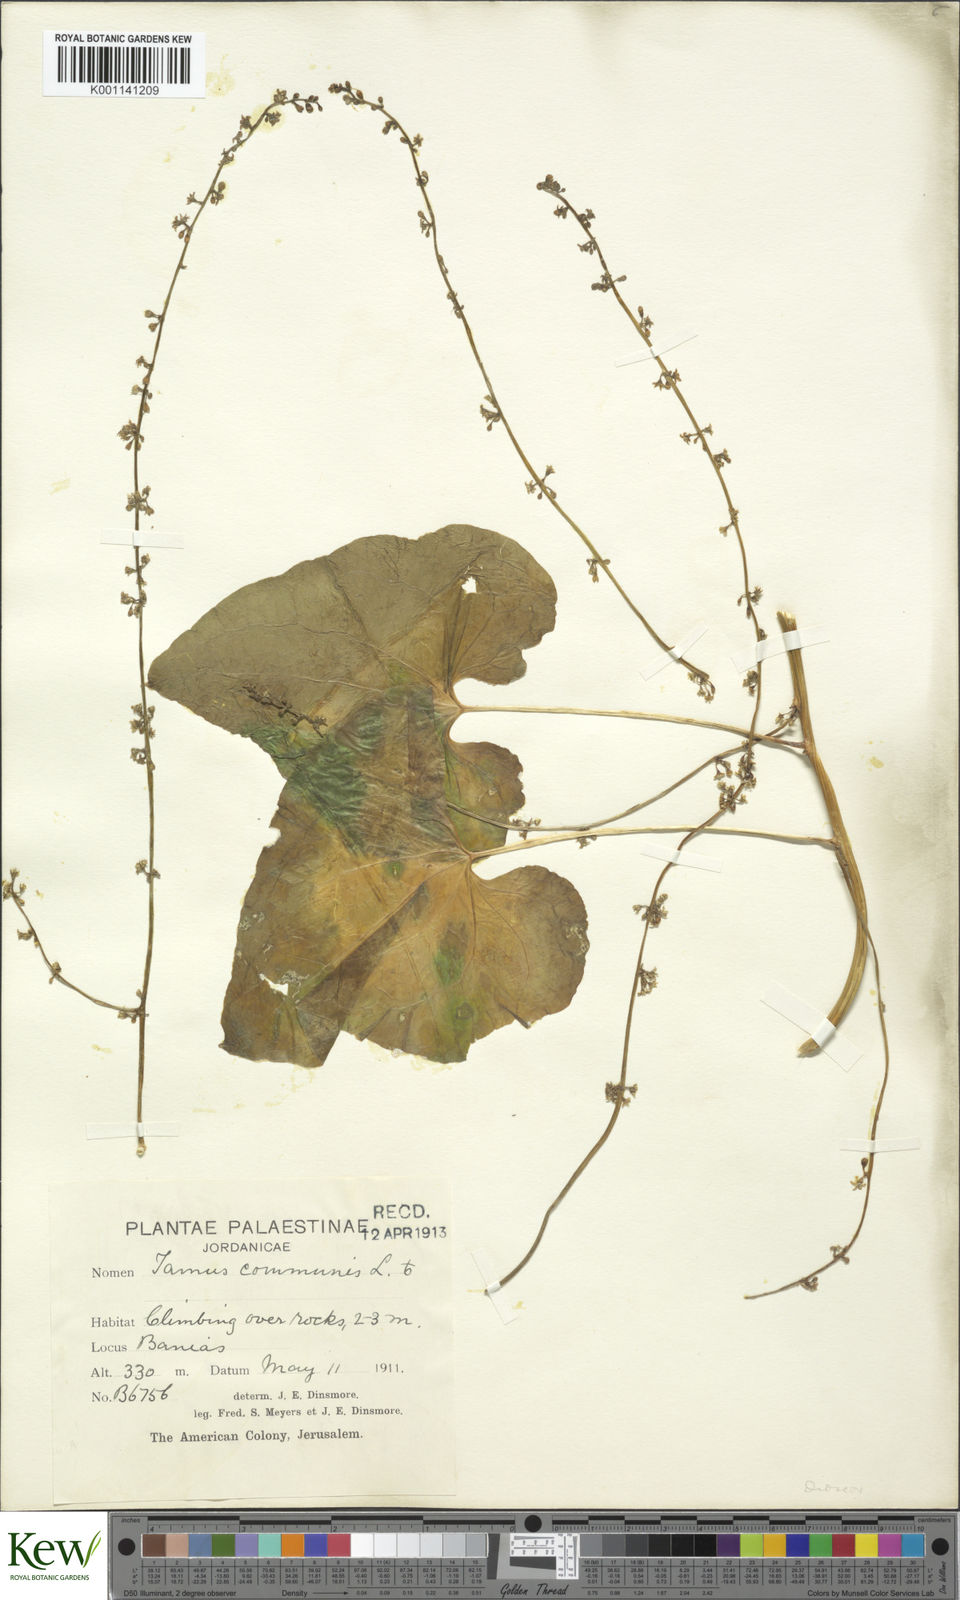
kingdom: Plantae
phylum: Tracheophyta
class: Liliopsida
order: Dioscoreales
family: Dioscoreaceae
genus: Dioscorea
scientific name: Dioscorea communis
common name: Black-bindweed
